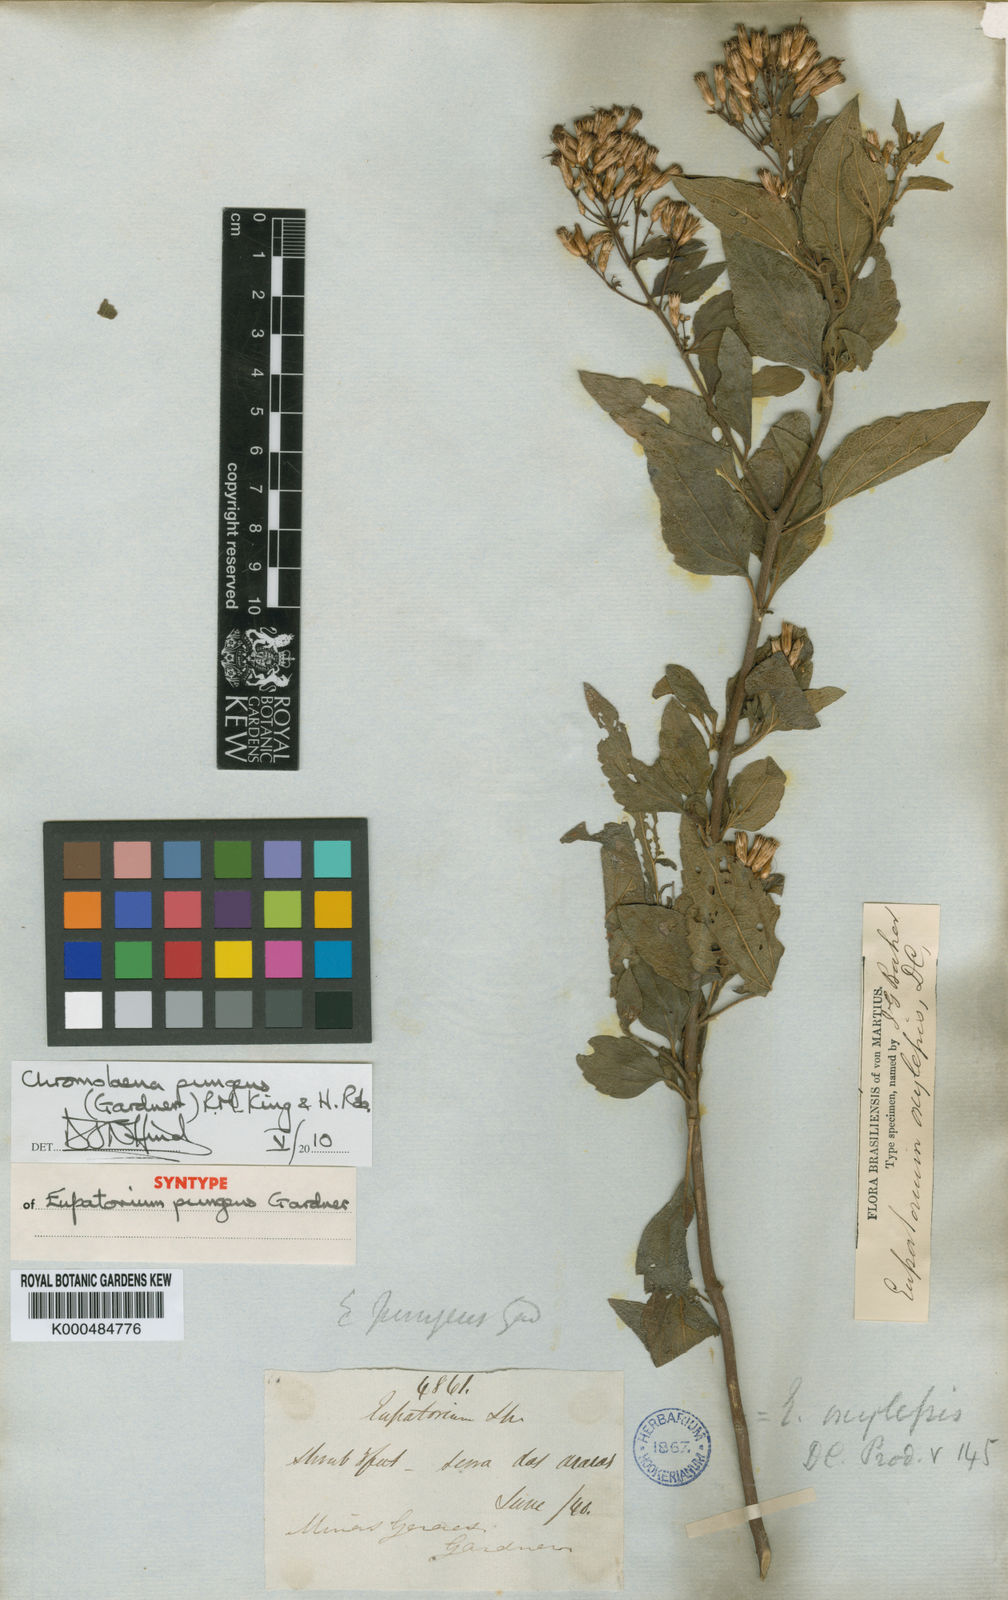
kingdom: Plantae
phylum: Tracheophyta
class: Magnoliopsida
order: Asterales
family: Asteraceae
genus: Chromolaena
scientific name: Chromolaena pungens
